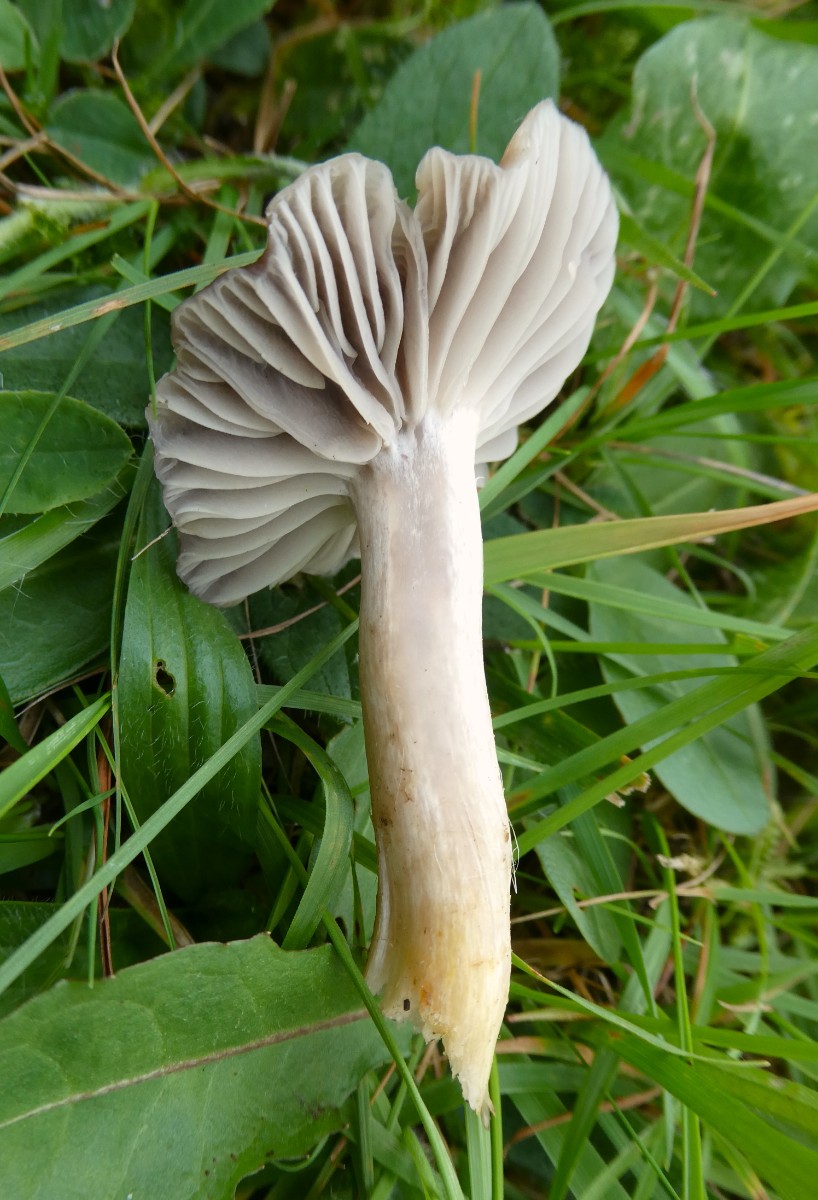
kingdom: Fungi
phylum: Basidiomycota
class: Agaricomycetes
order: Agaricales
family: Hygrophoraceae
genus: Cuphophyllus
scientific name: Cuphophyllus flavipes
